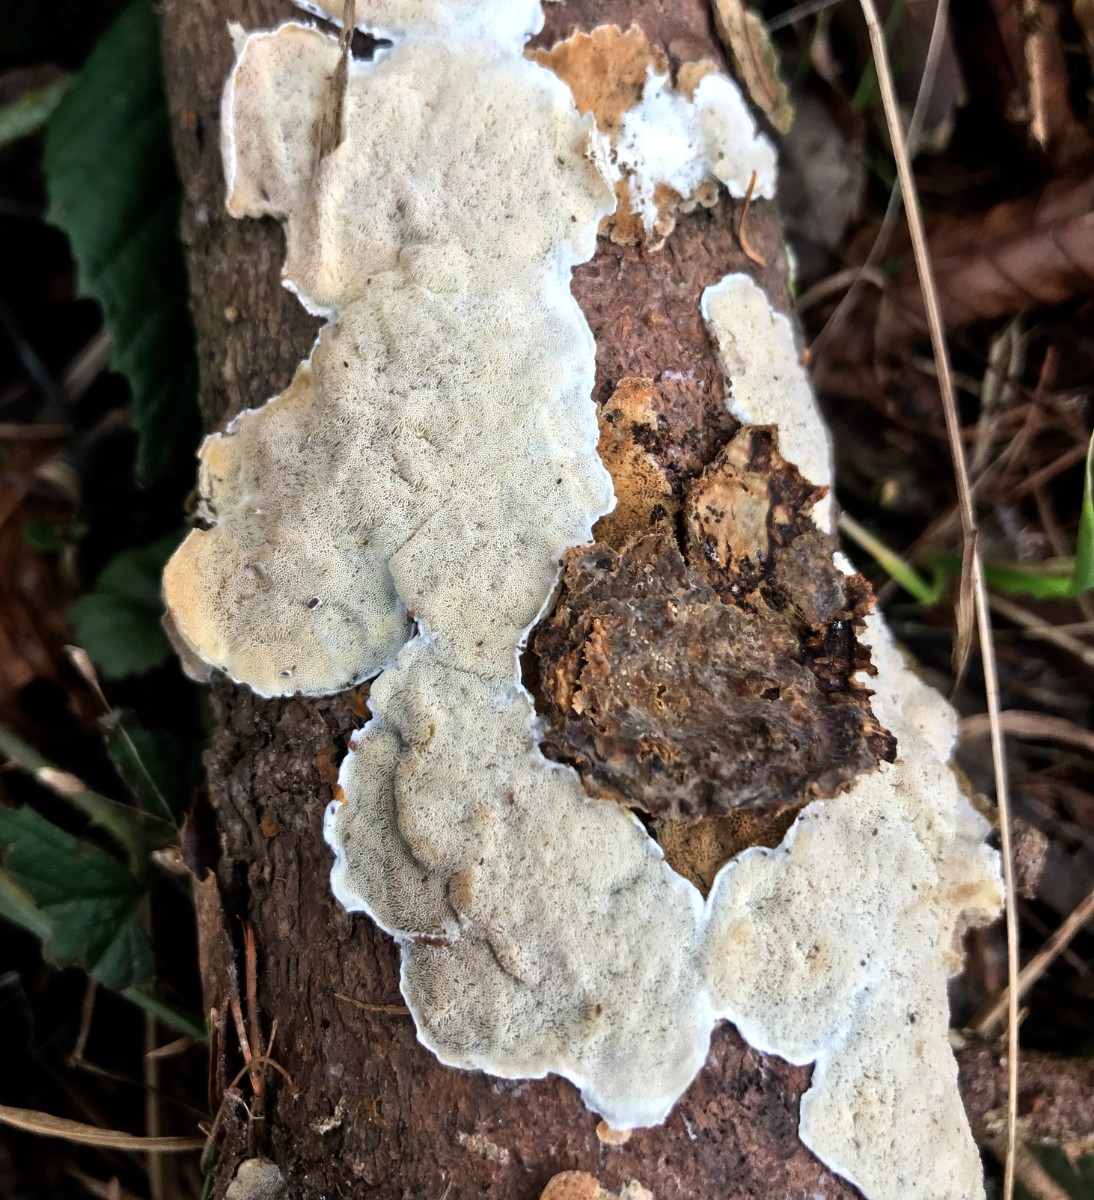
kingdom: Fungi
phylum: Basidiomycota
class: Agaricomycetes
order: Polyporales
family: Incrustoporiaceae
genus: Skeletocutis
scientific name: Skeletocutis
